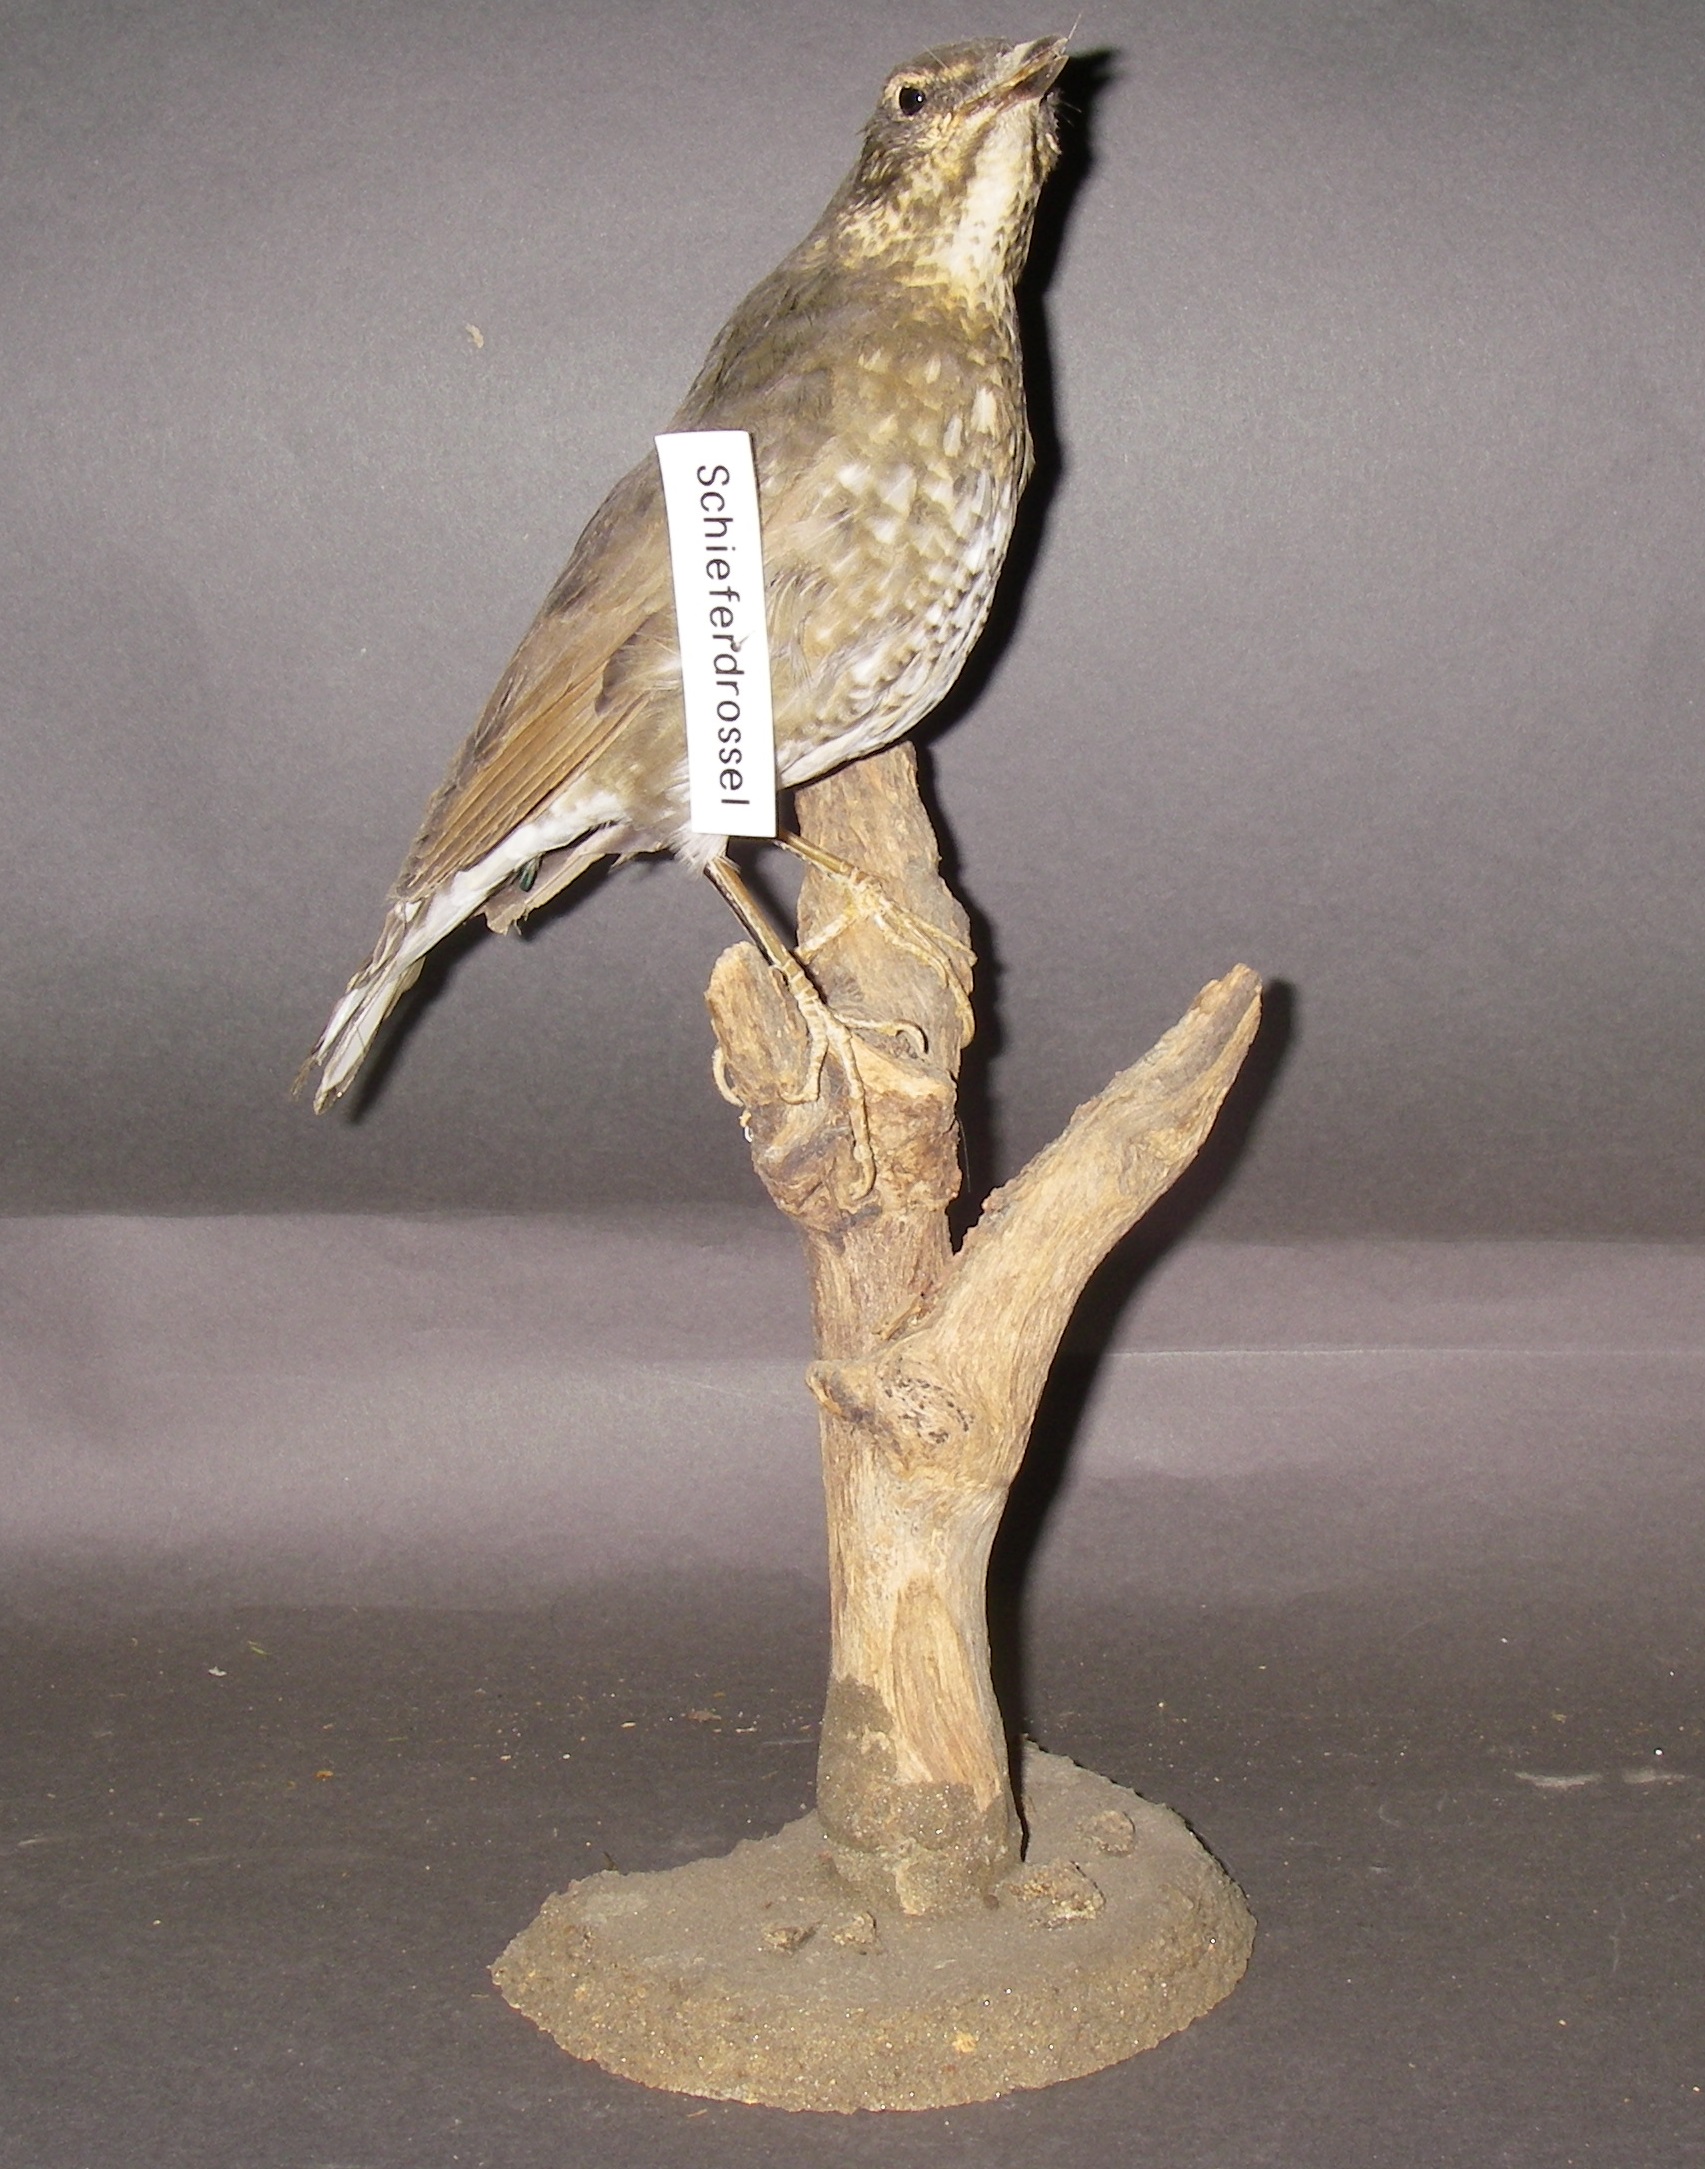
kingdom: Animalia
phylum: Chordata
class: Aves
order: Passeriformes
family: Turdidae
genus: Geokichla
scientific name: Geokichla sibirica
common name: Siberian thrush
